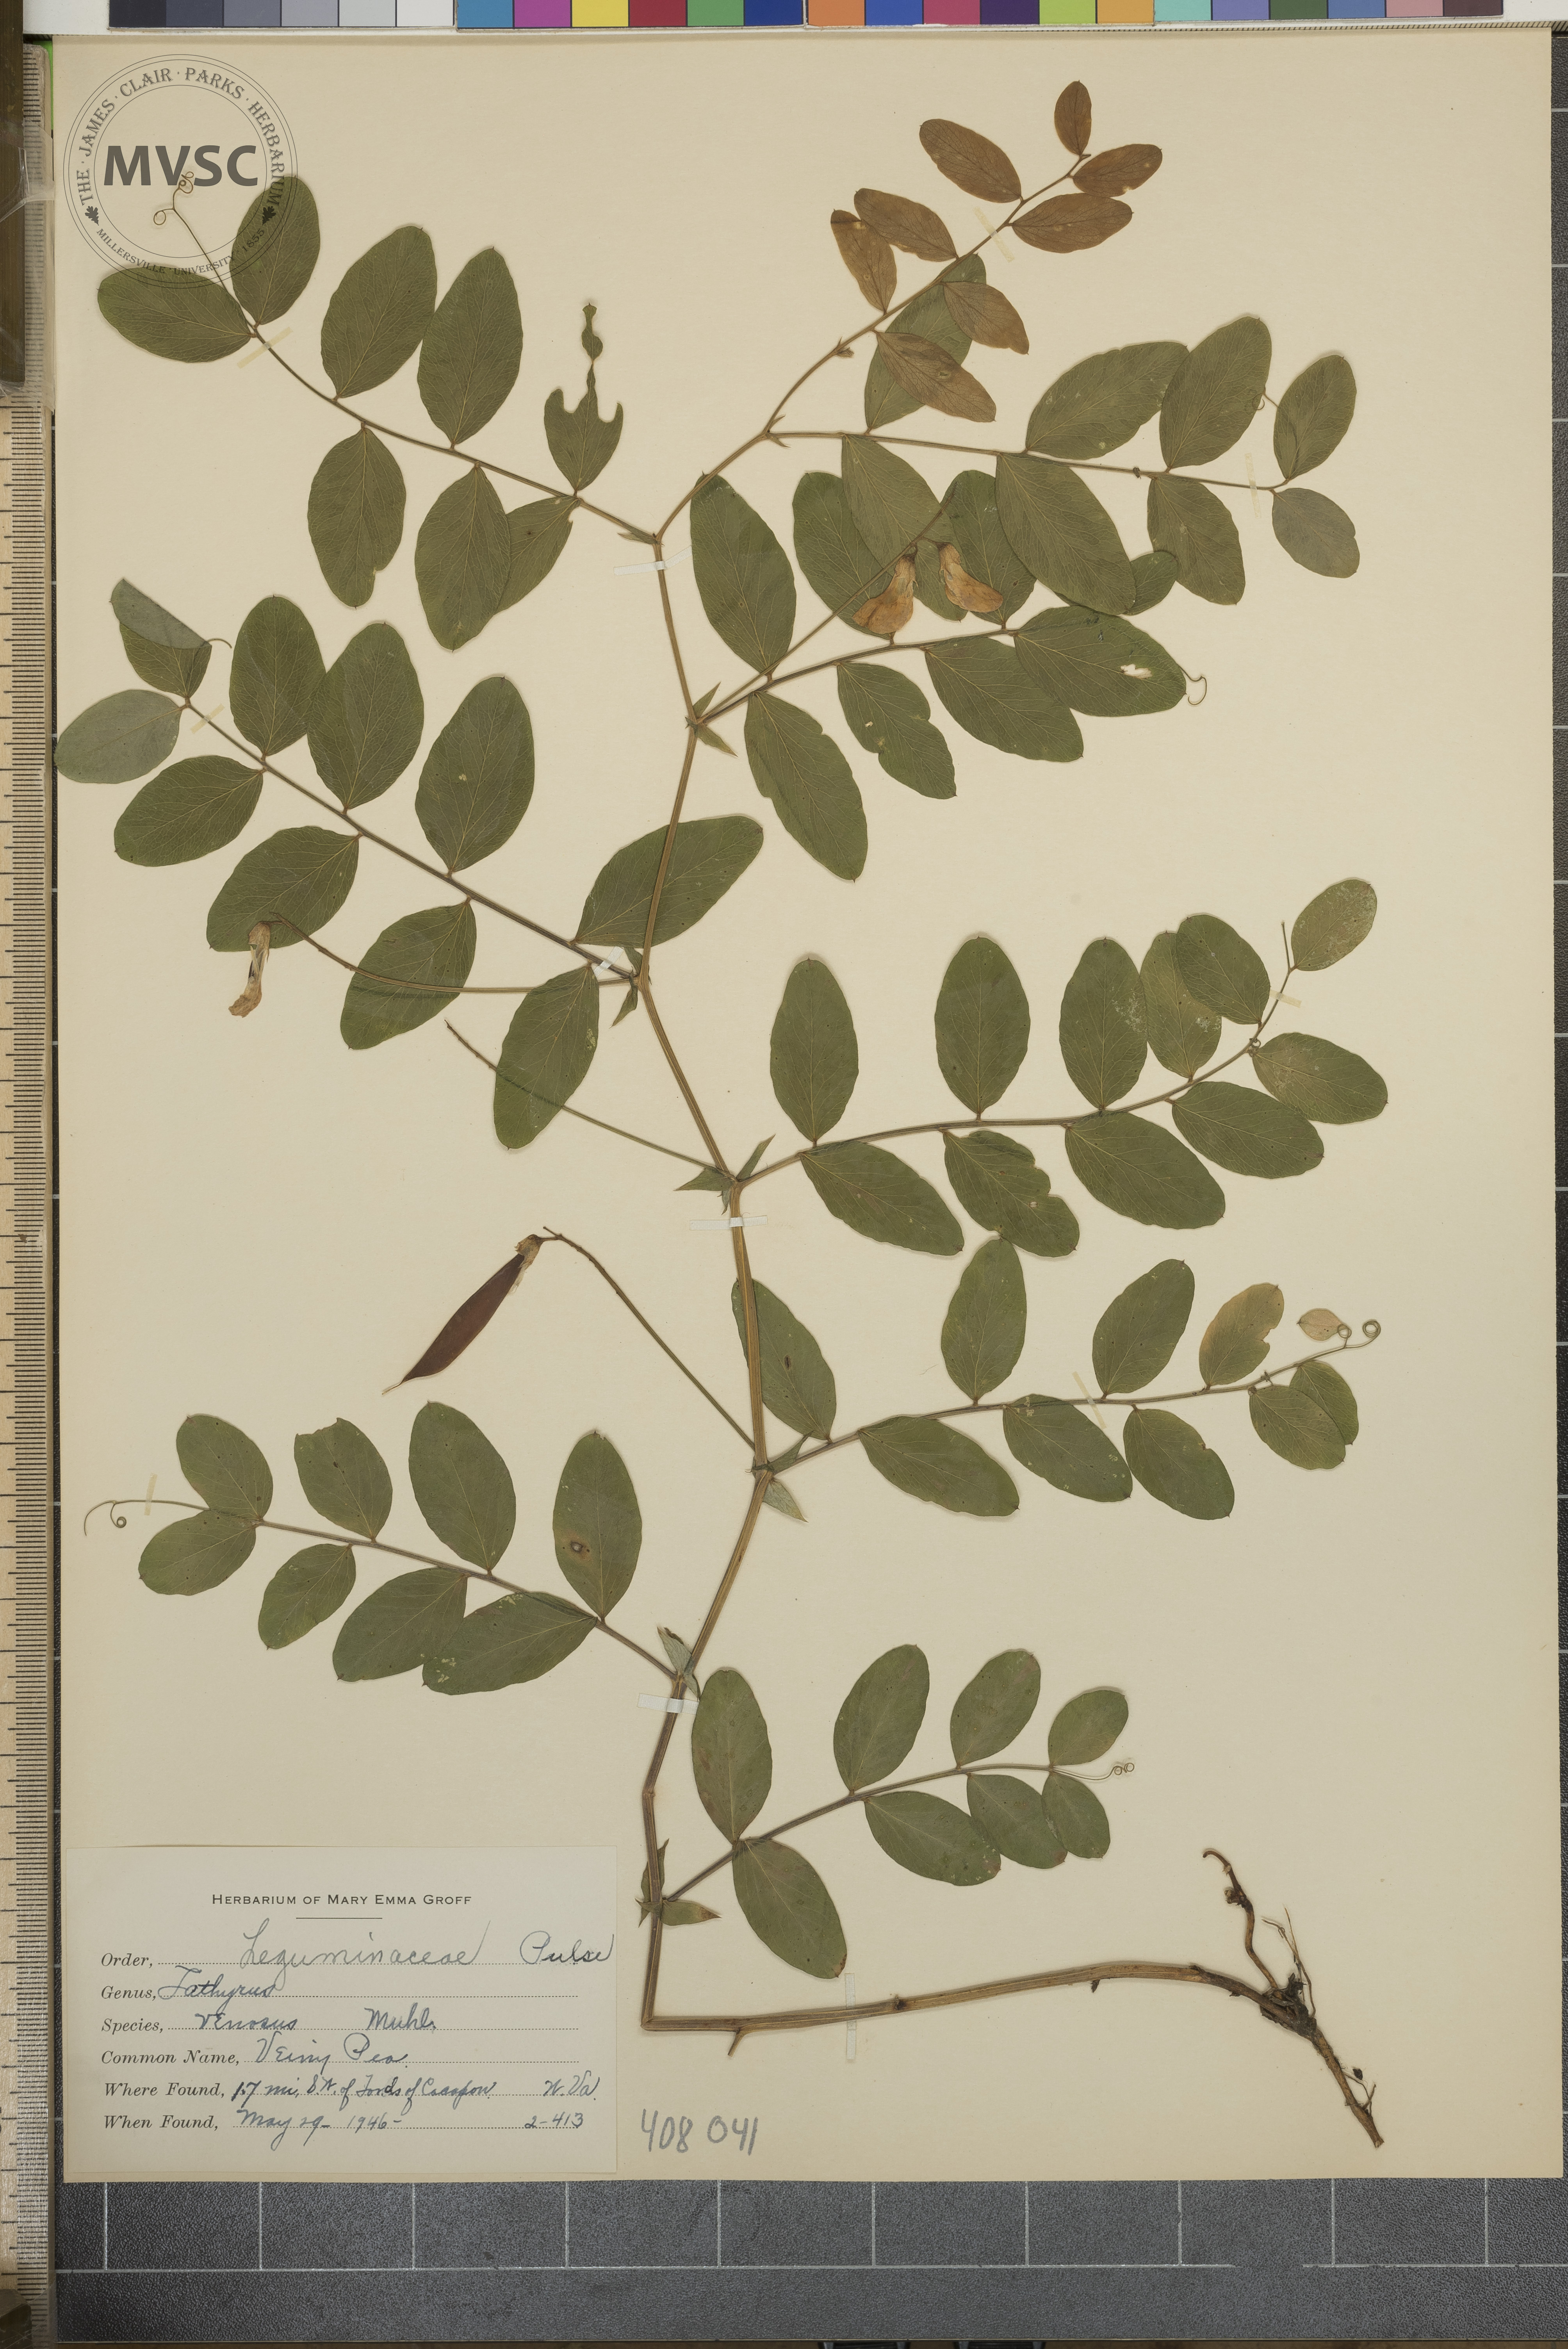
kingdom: Plantae
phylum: Tracheophyta
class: Magnoliopsida
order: Fabales
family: Fabaceae
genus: Lathyrus
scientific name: Lathyrus venosus
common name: Veiny Pea
